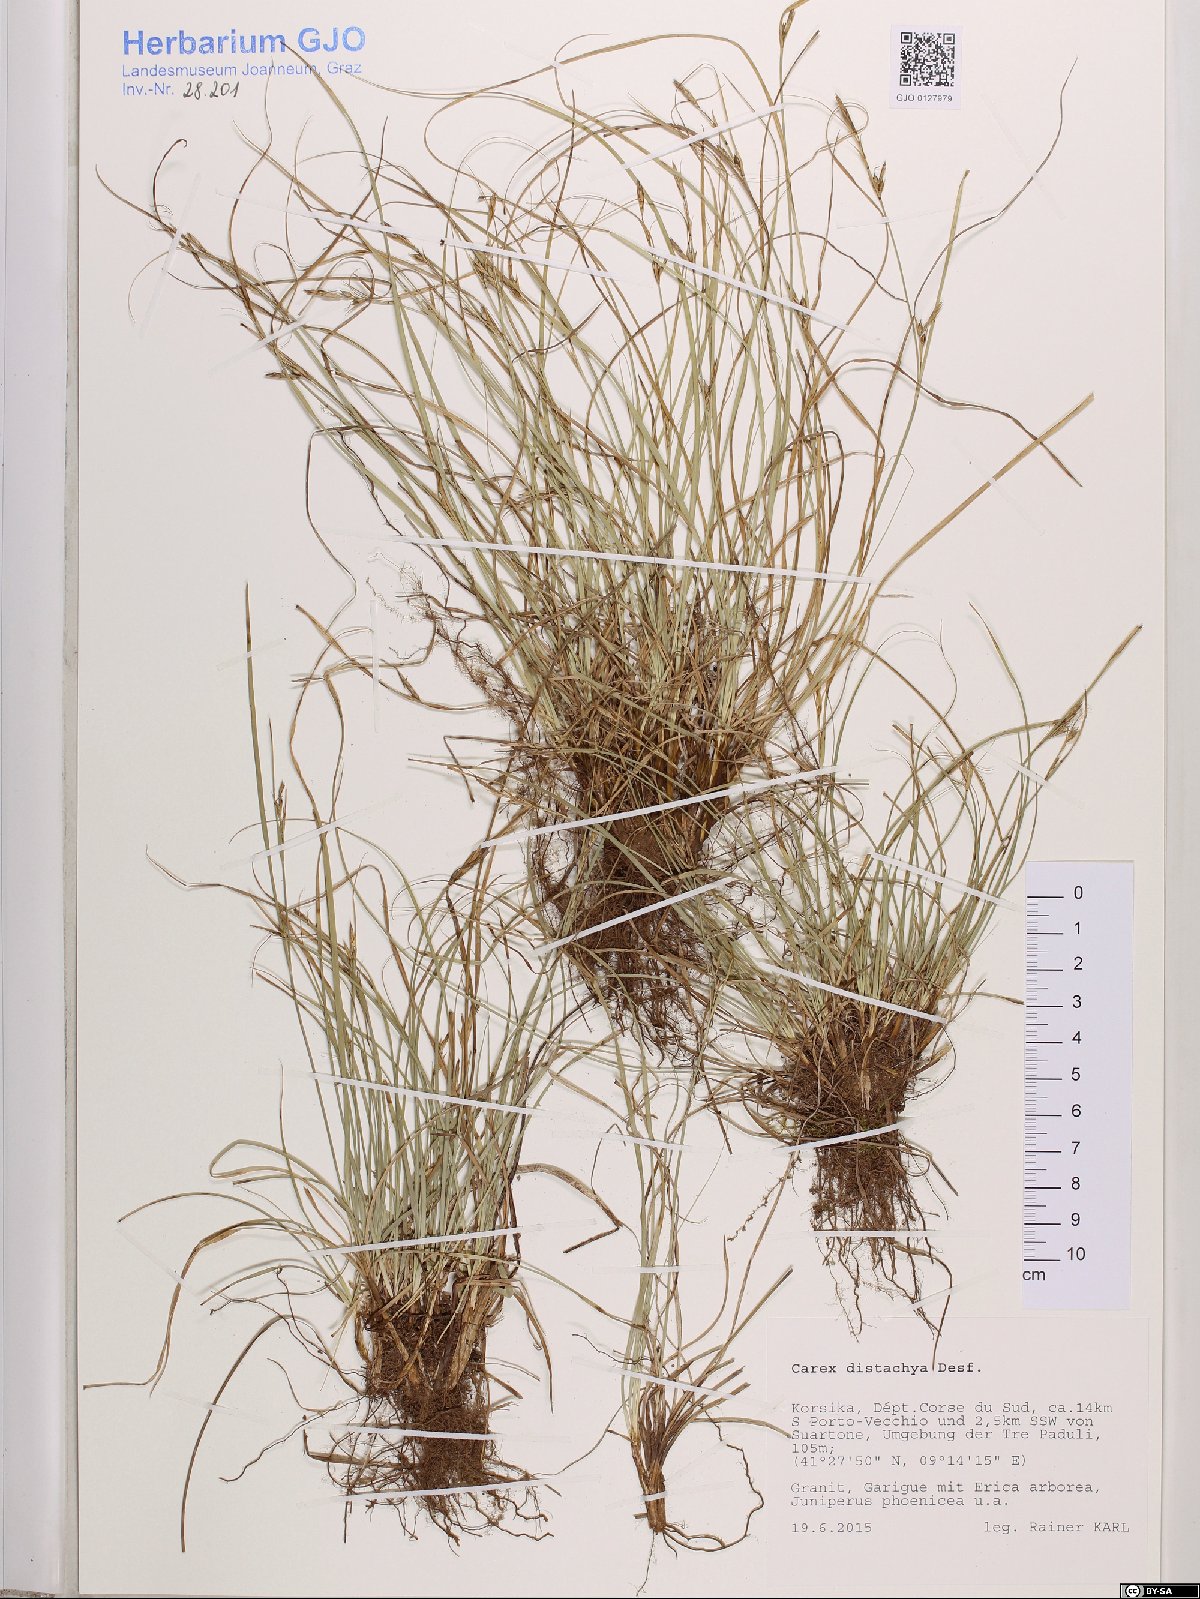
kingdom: Plantae
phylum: Tracheophyta
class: Liliopsida
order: Poales
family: Cyperaceae
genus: Carex
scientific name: Carex distachya
